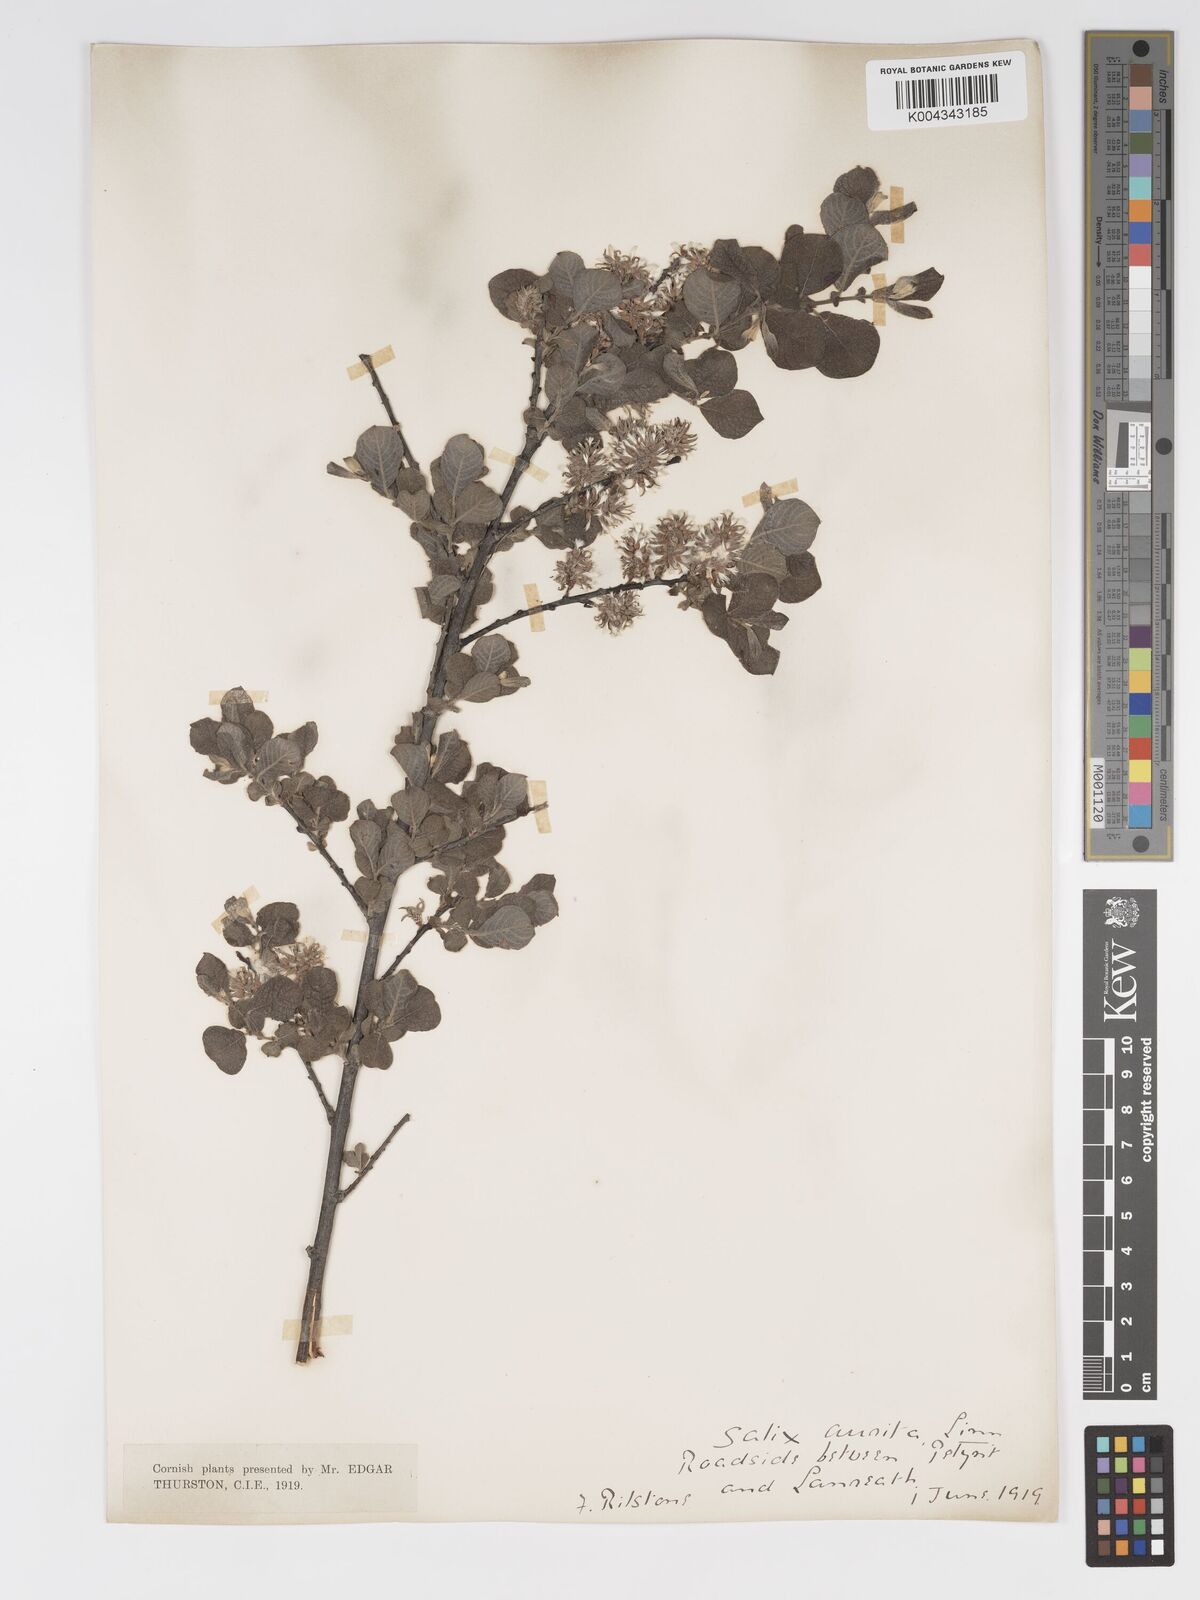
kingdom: Plantae
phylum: Tracheophyta
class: Magnoliopsida
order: Malpighiales
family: Salicaceae
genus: Salix
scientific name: Salix aurita
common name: Eared willow
